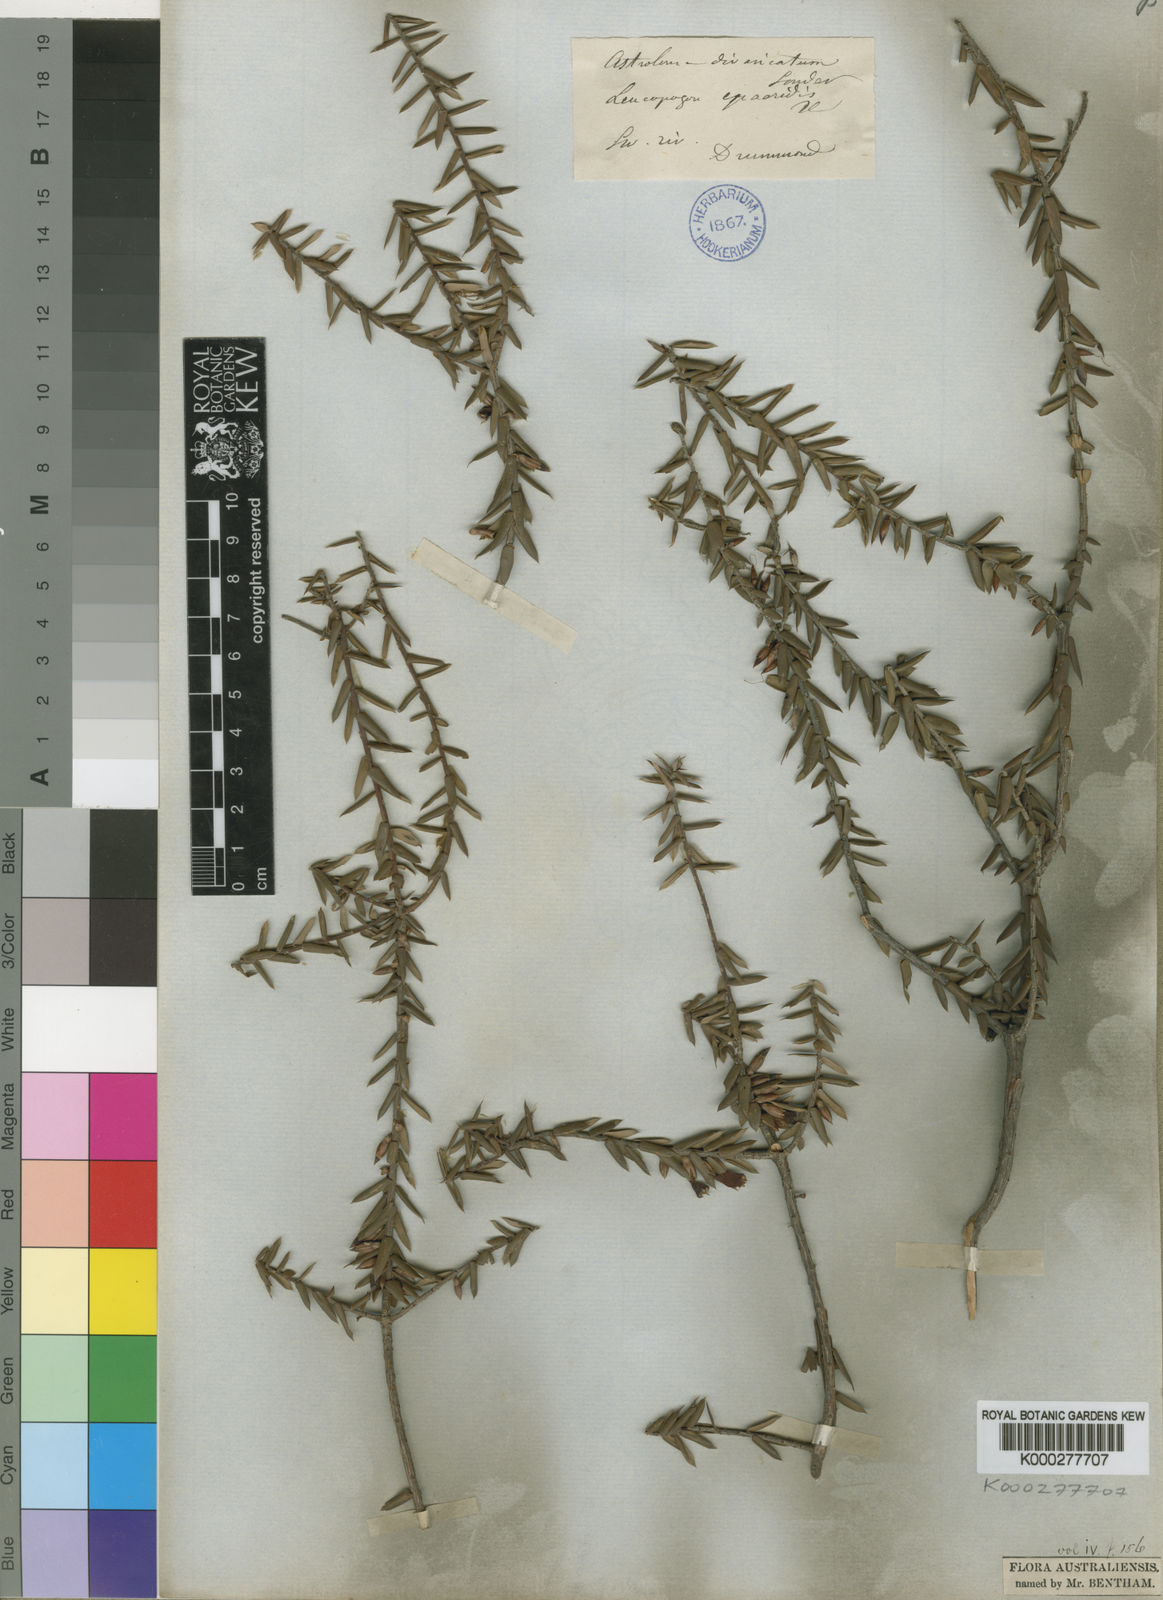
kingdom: Plantae
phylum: Tracheophyta
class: Magnoliopsida
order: Ericales
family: Ericaceae
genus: Styphelia
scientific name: Styphelia epacridis
